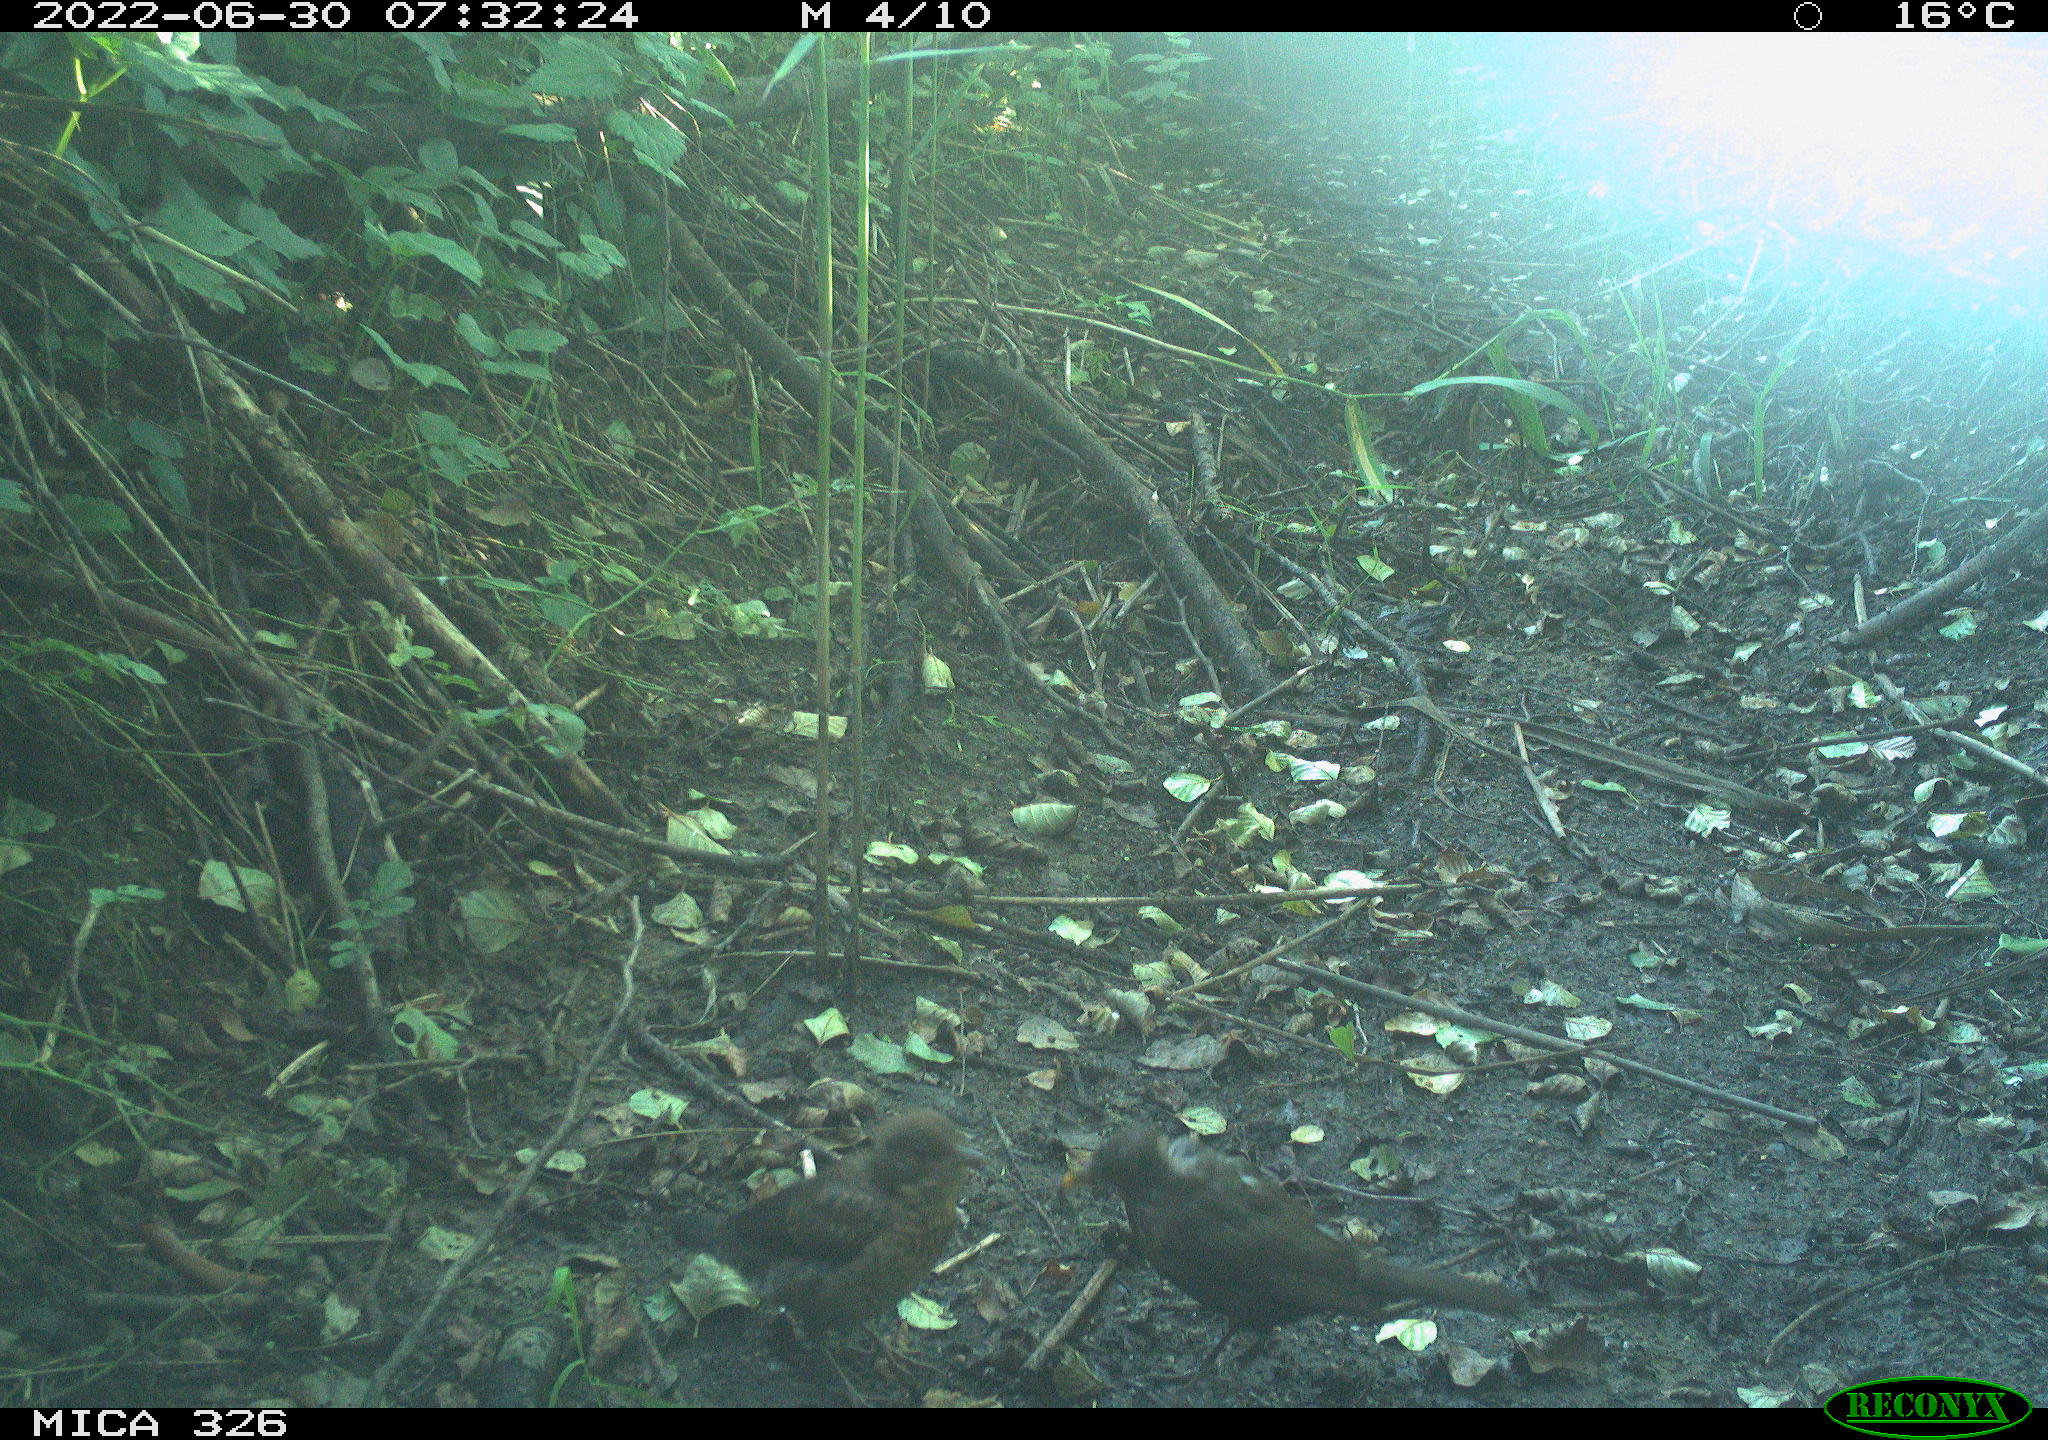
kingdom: Animalia
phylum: Chordata
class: Aves
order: Passeriformes
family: Turdidae
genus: Turdus
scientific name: Turdus
